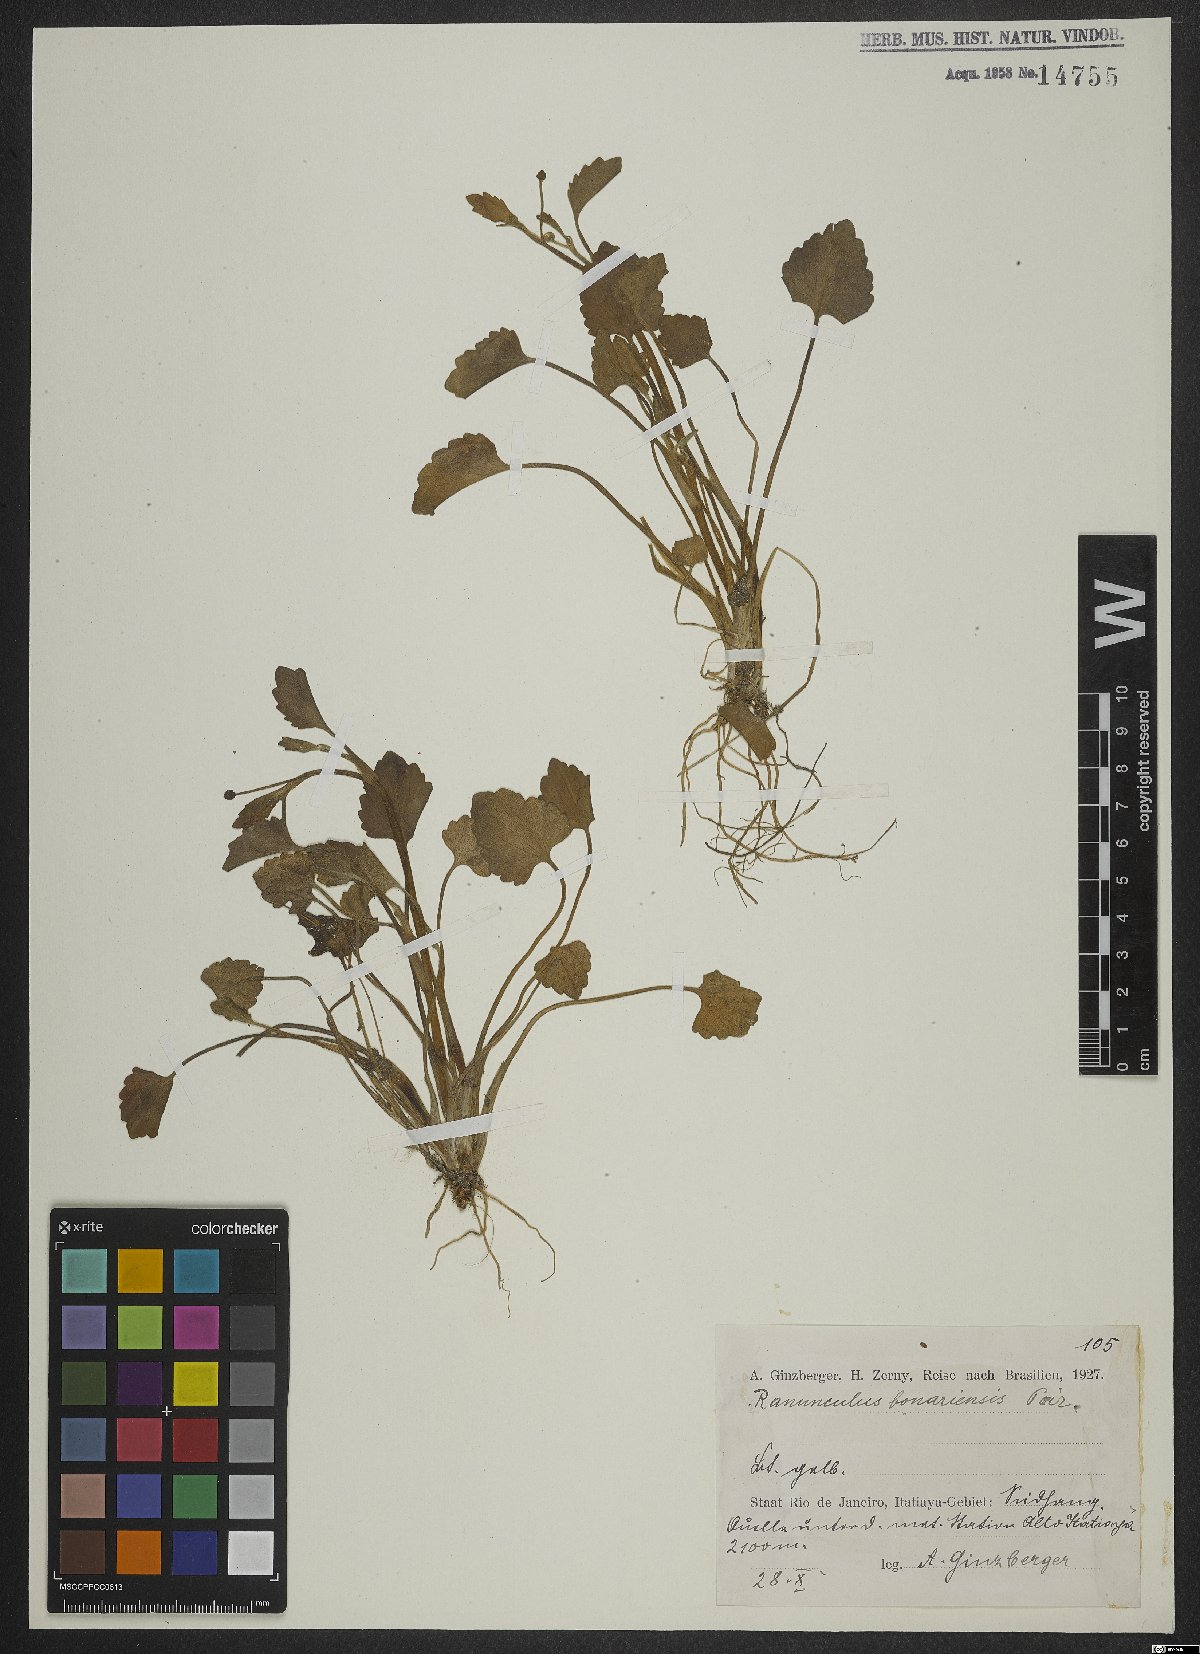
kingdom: Plantae
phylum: Tracheophyta
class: Magnoliopsida
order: Ranunculales
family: Ranunculaceae
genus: Ranunculus
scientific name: Ranunculus bonariensis
